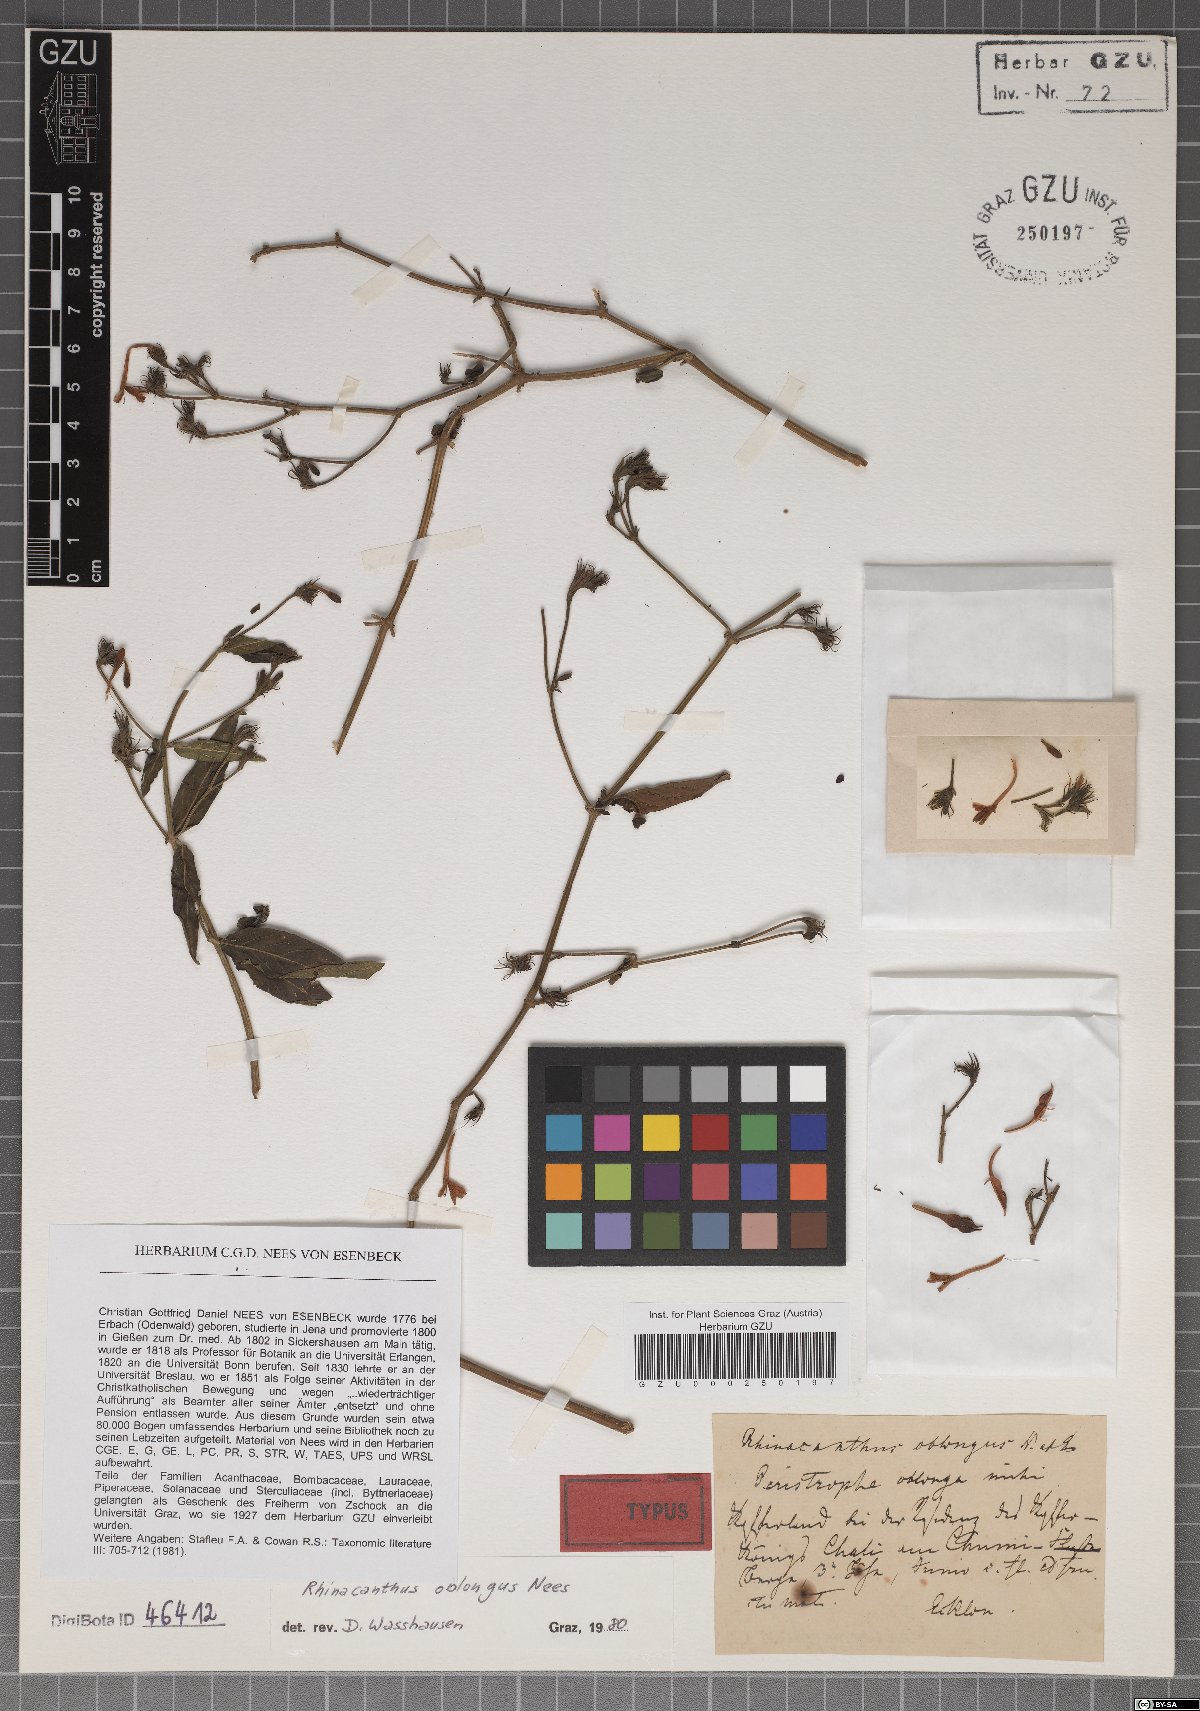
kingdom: Plantae
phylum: Tracheophyta
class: Magnoliopsida
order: Lamiales
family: Acanthaceae
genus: Rhinacanthus
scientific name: Rhinacanthus oblongus
